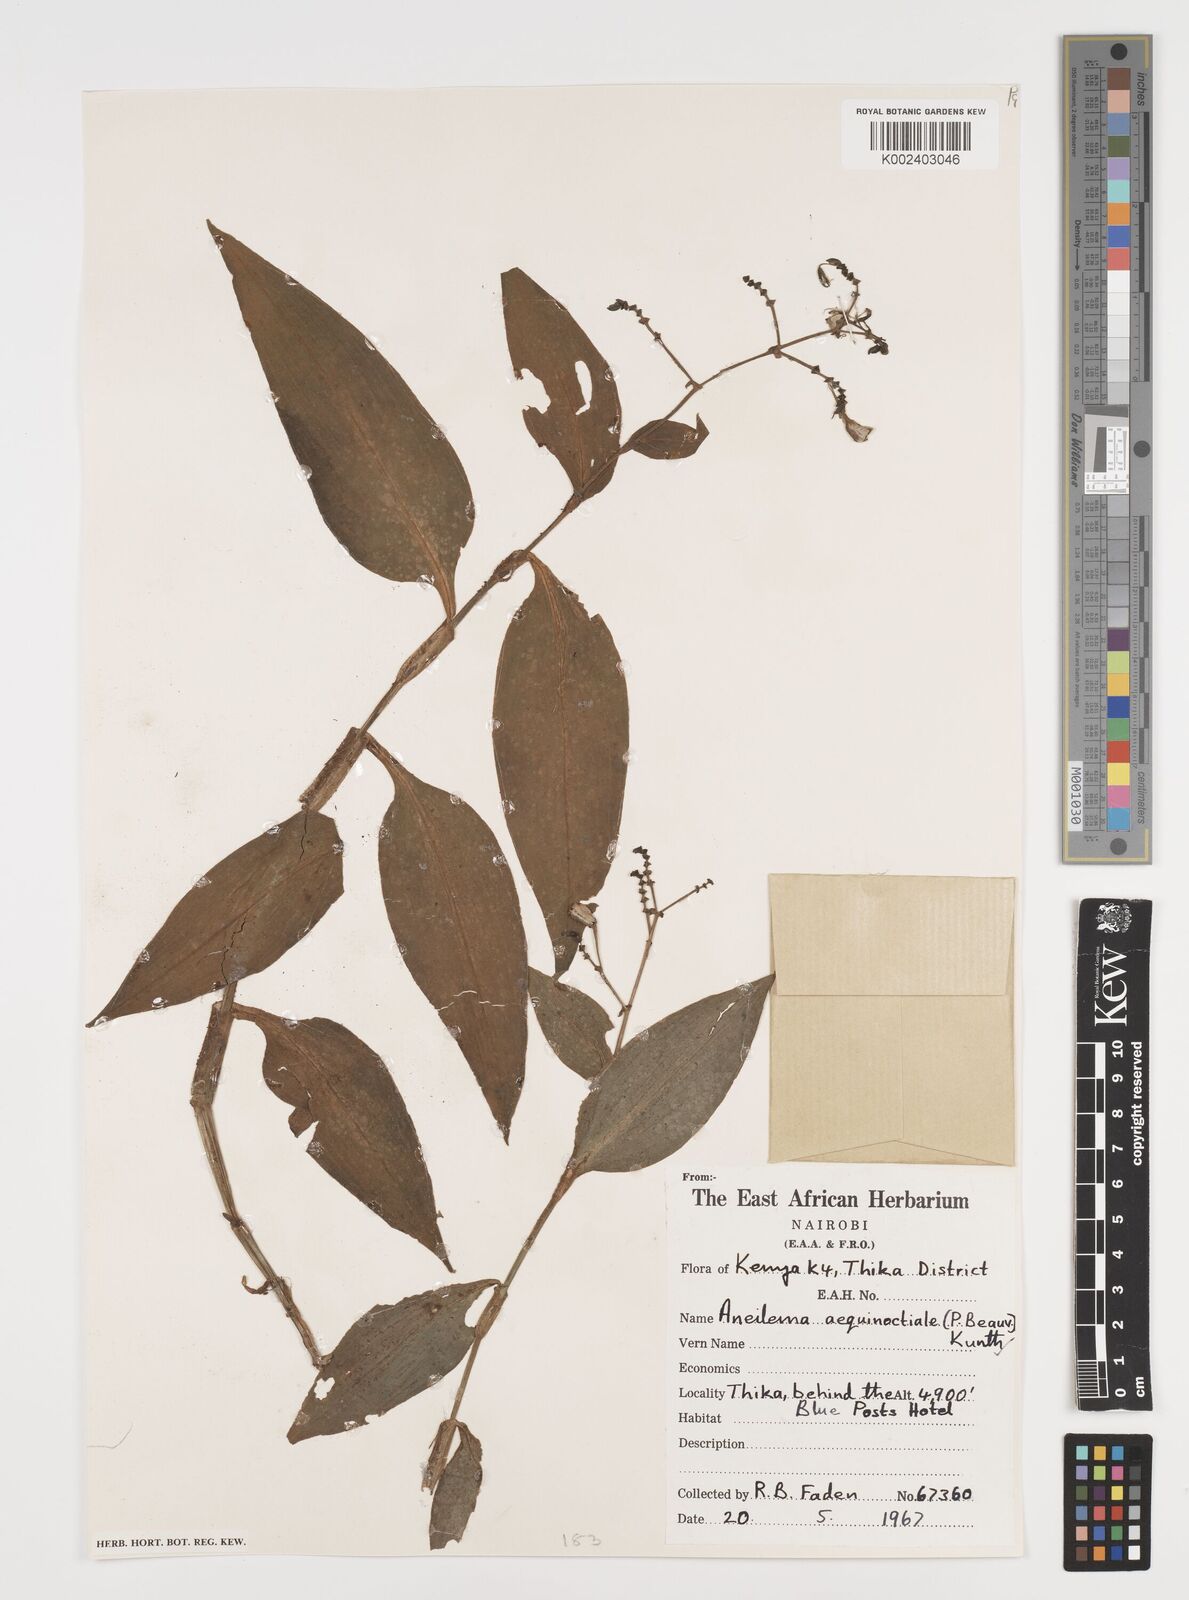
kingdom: Plantae
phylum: Tracheophyta
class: Liliopsida
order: Commelinales
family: Commelinaceae
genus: Aneilema
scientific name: Aneilema aequinoctiale
